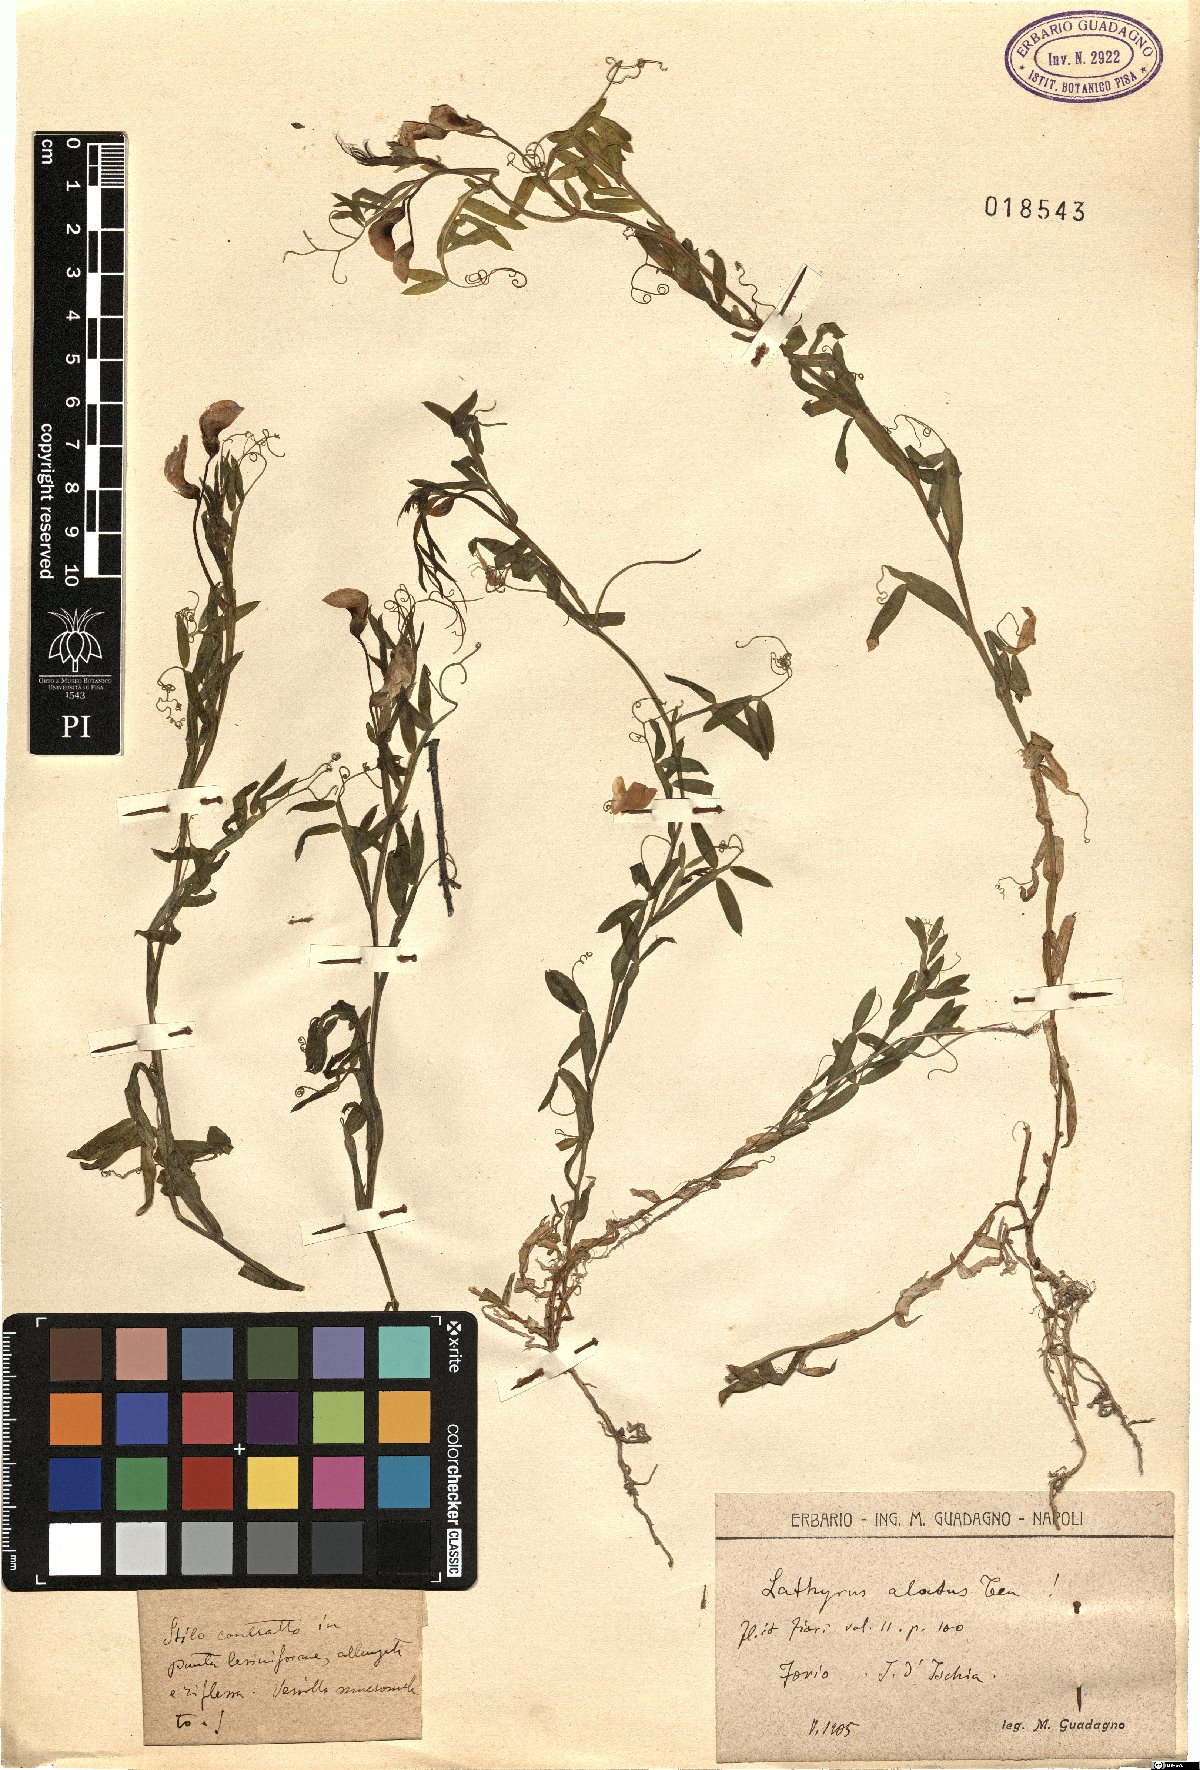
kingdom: Plantae
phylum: Tracheophyta
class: Magnoliopsida
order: Fabales
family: Fabaceae
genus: Lathyrus
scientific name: Lathyrus komarovii
